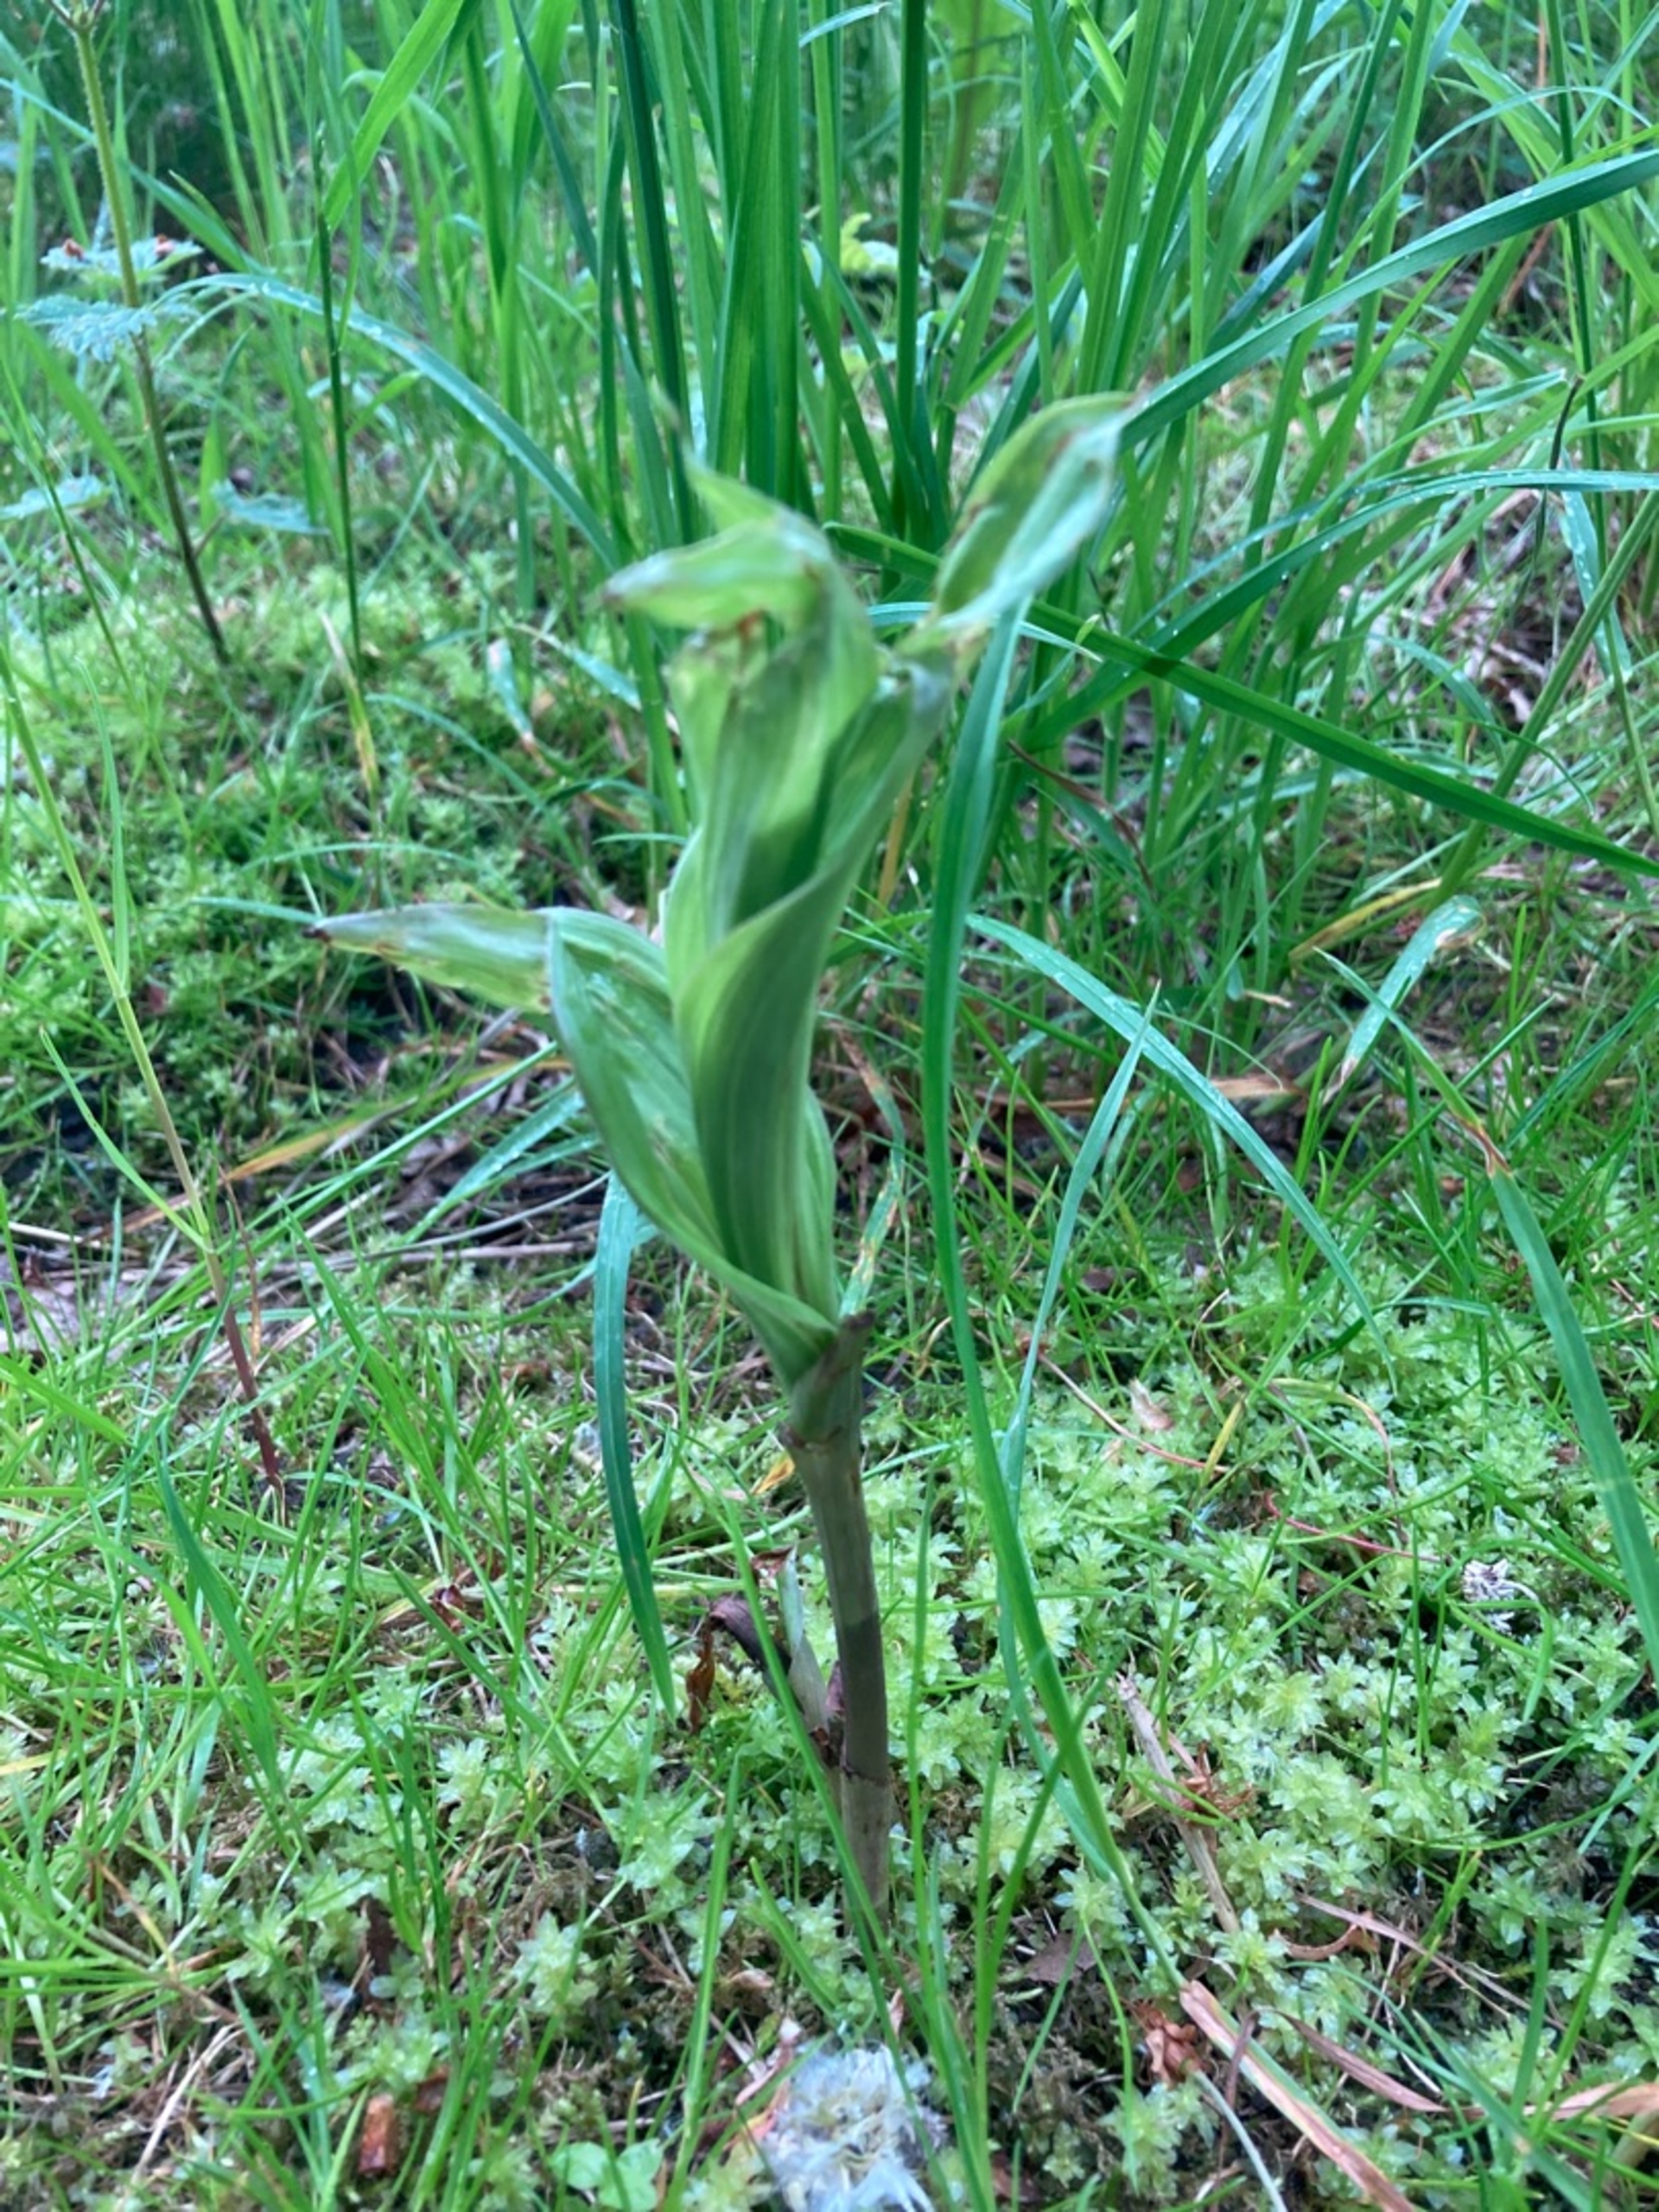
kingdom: Plantae
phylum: Tracheophyta
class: Liliopsida
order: Asparagales
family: Orchidaceae
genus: Epipactis
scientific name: Epipactis helleborine
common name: Skov-hullæbe
